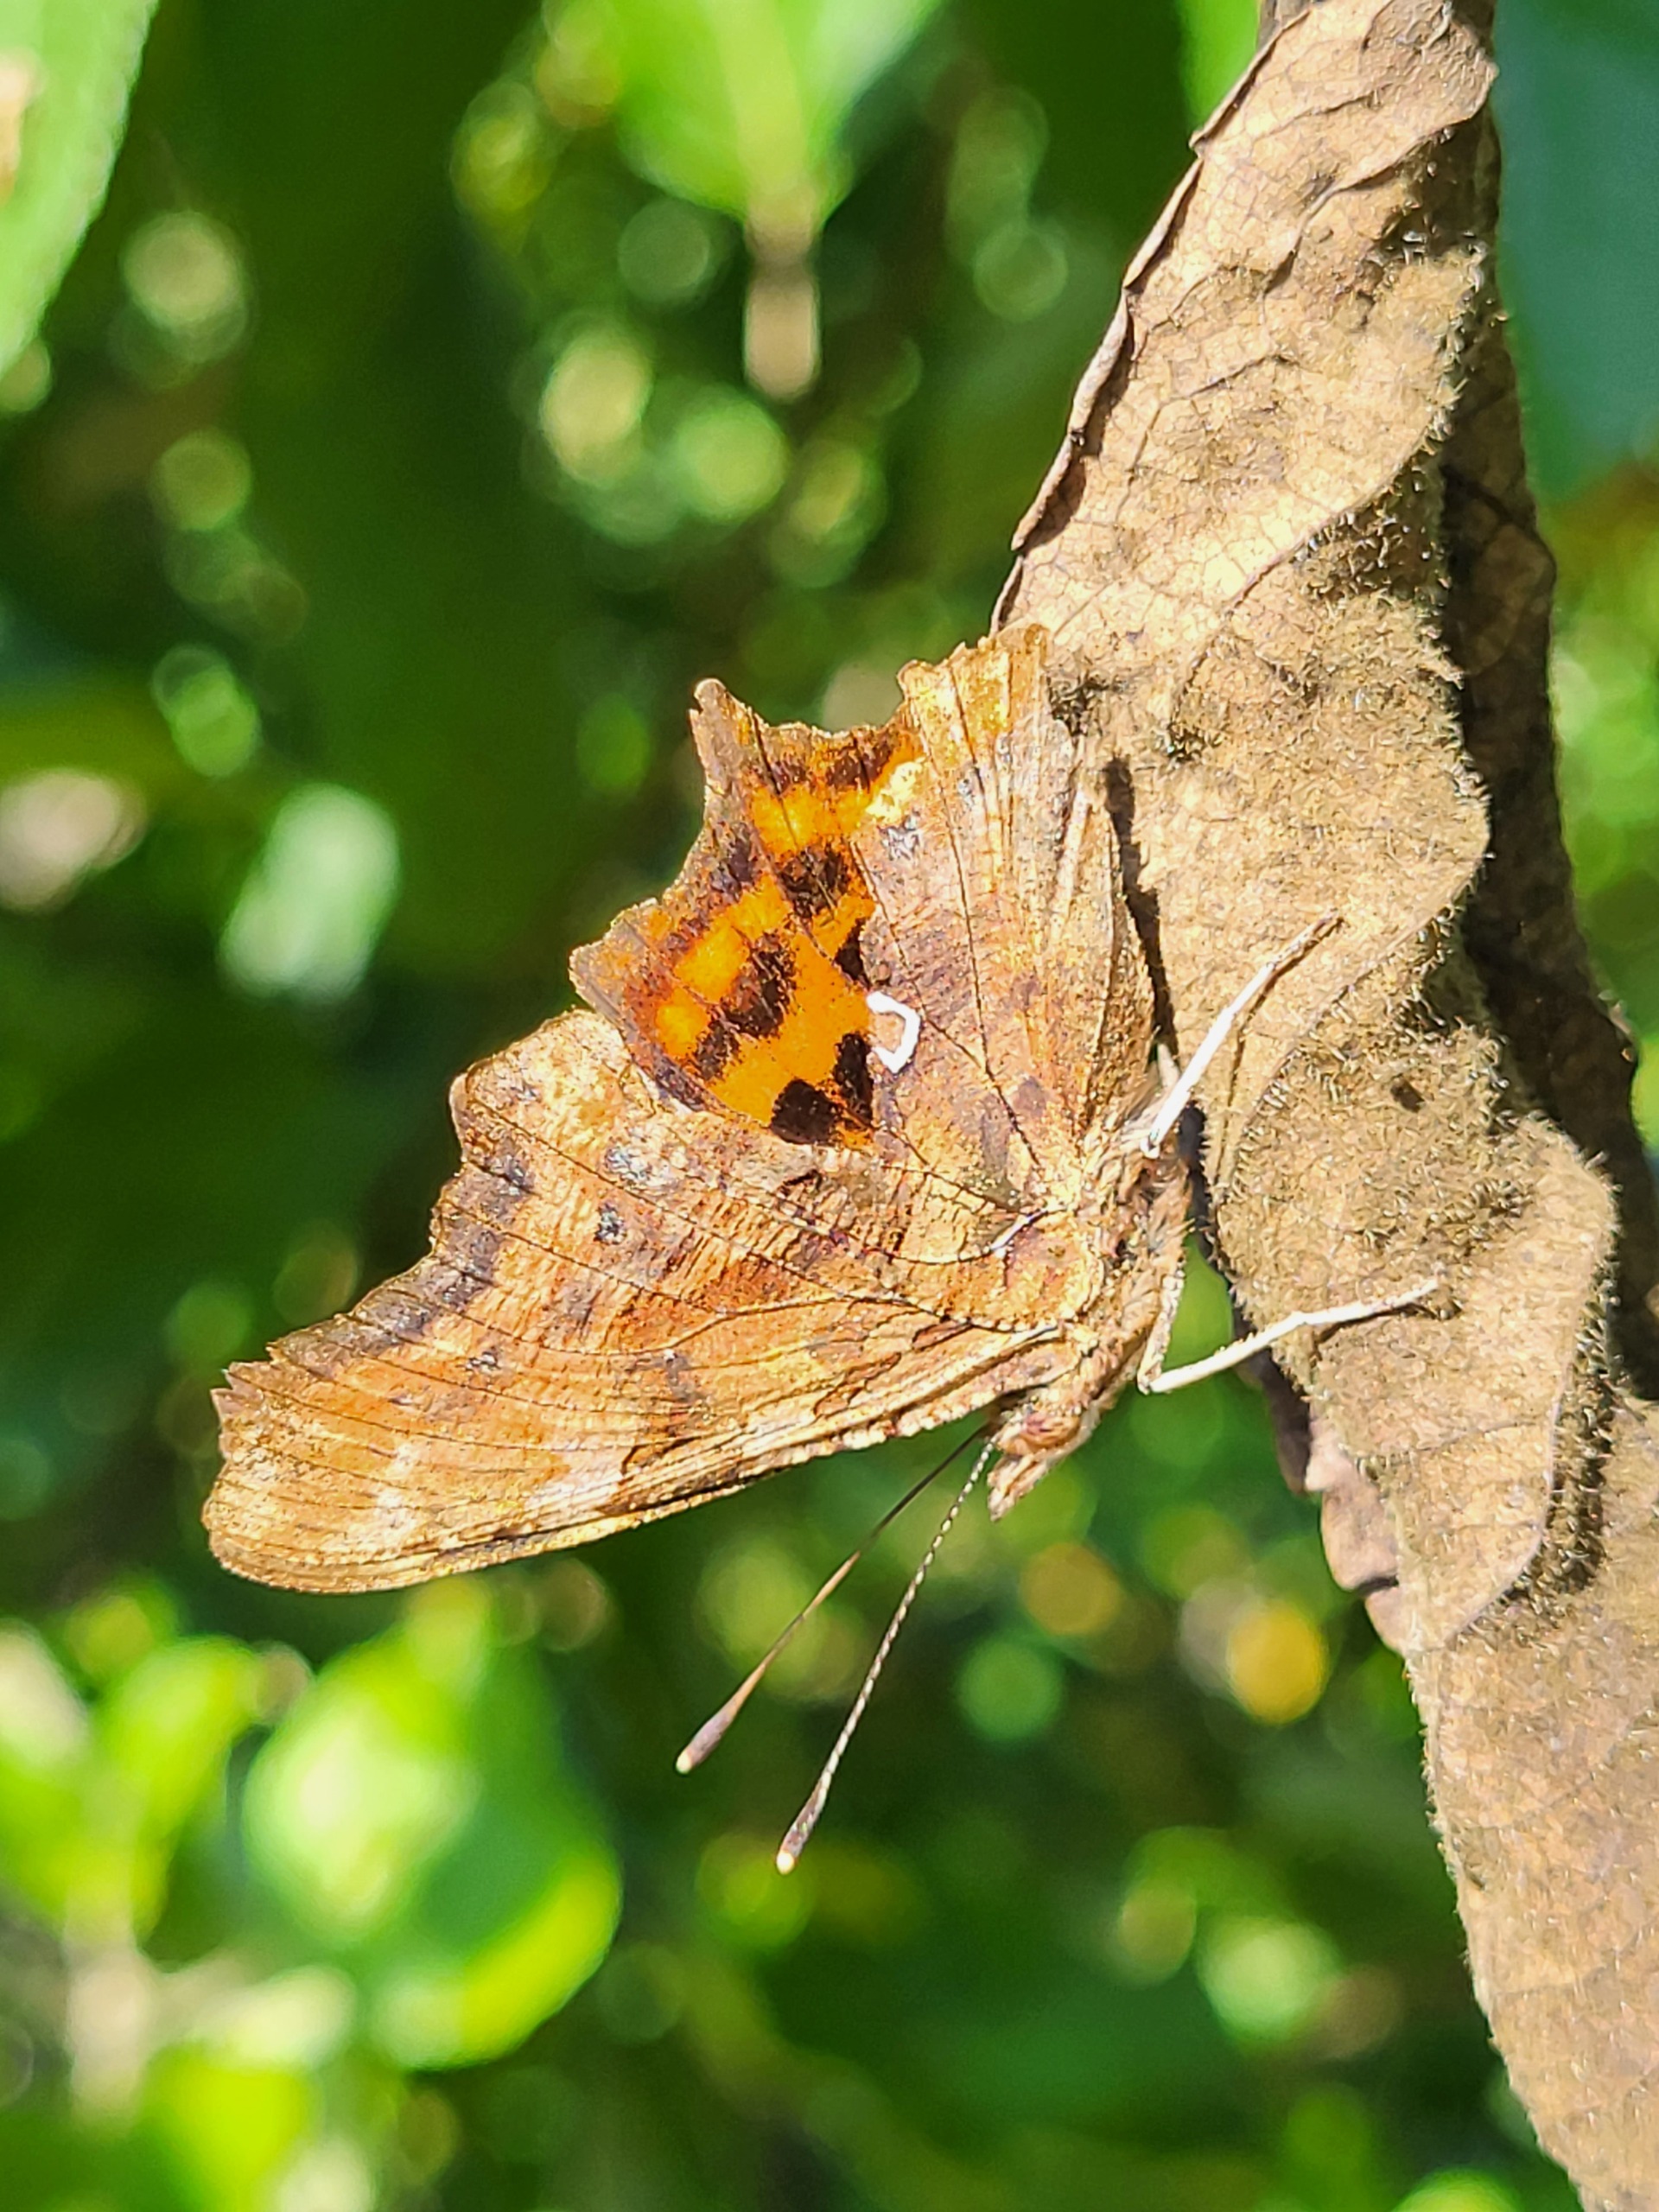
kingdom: Animalia
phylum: Arthropoda
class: Insecta
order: Lepidoptera
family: Nymphalidae
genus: Polygonia
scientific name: Polygonia c-album
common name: Det hvide C
